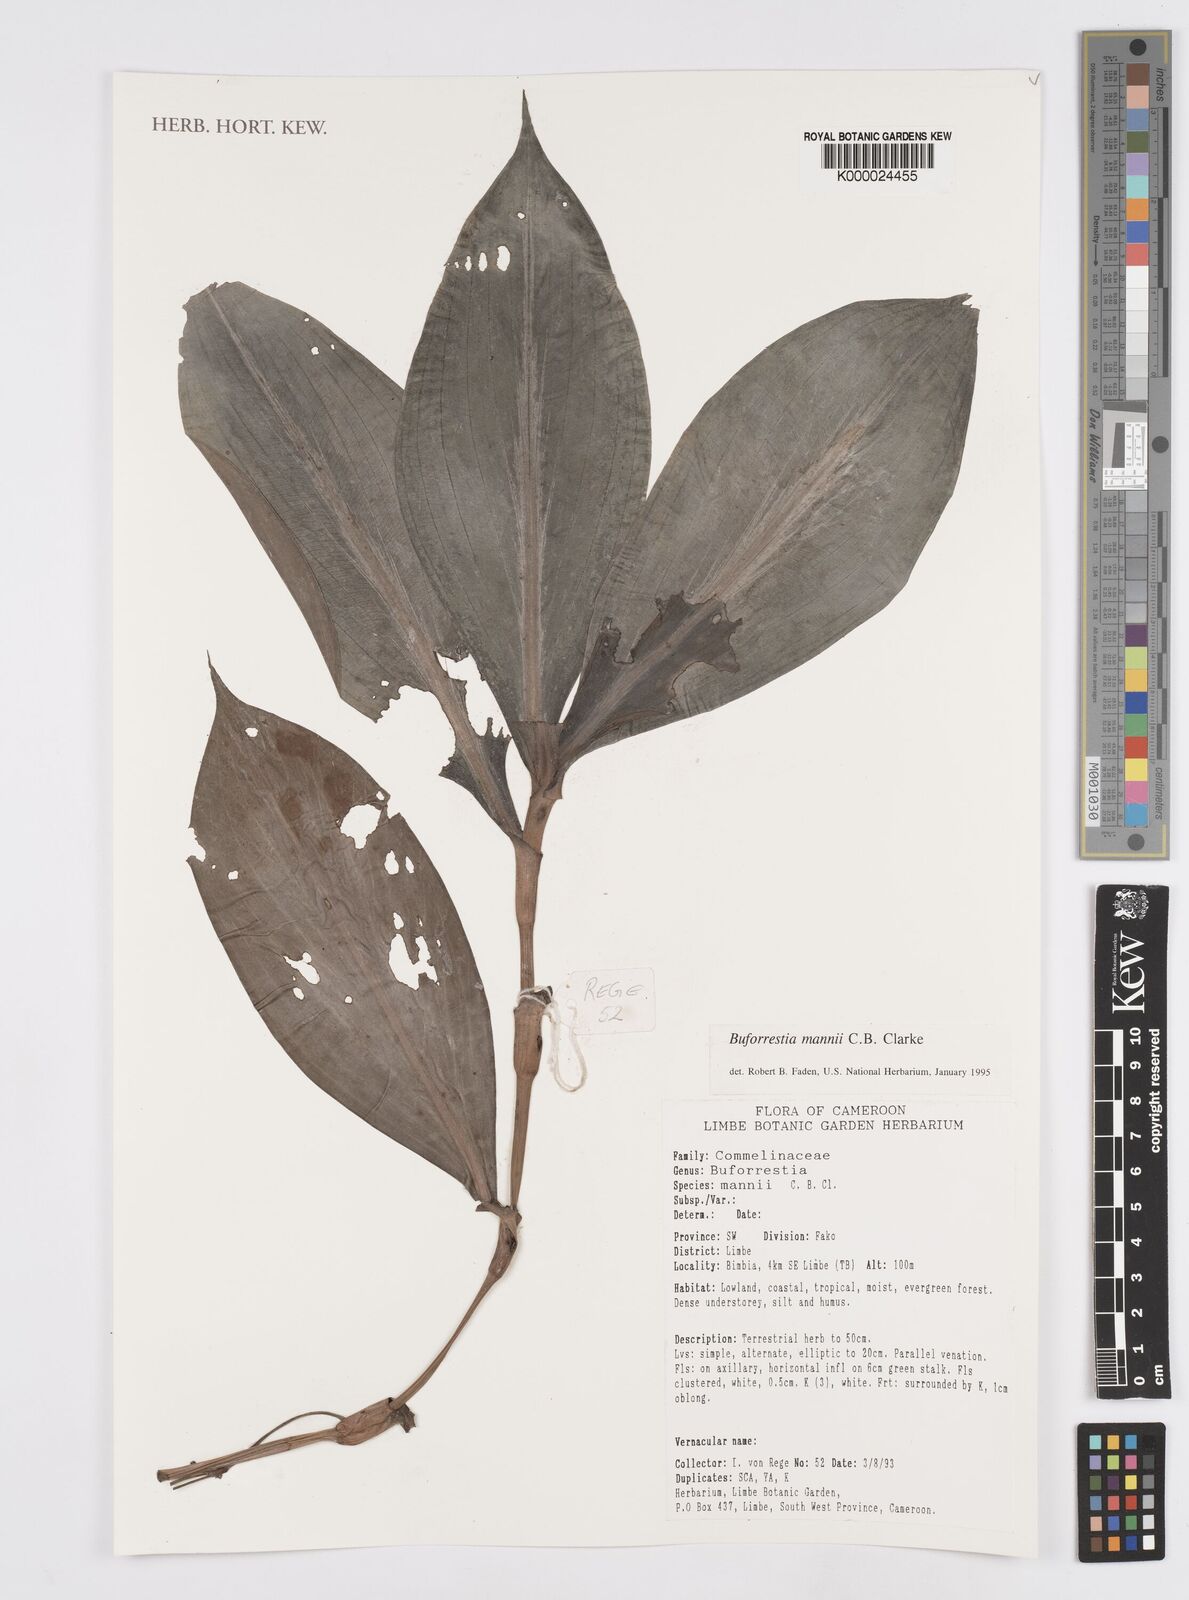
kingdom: Plantae
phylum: Tracheophyta
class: Liliopsida
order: Commelinales
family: Commelinaceae
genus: Buforrestia
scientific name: Buforrestia mannii
